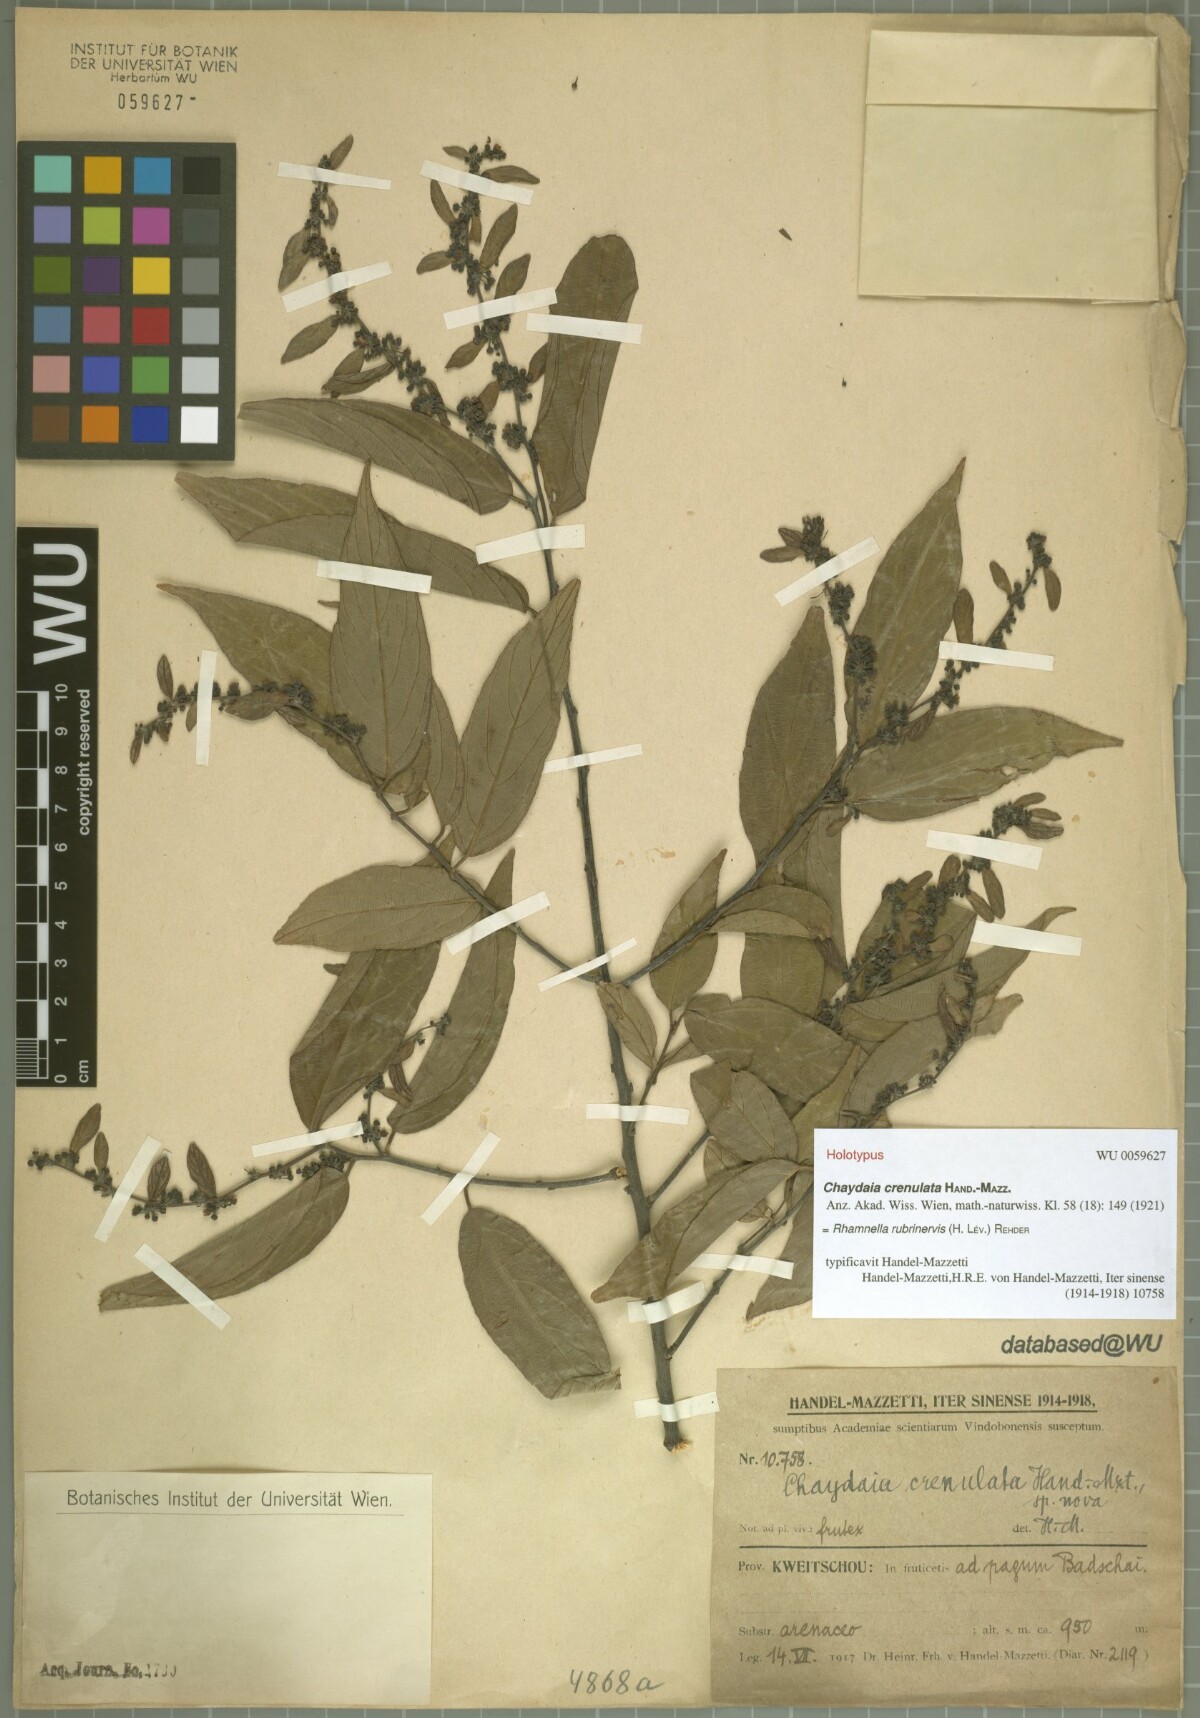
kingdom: Plantae
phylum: Tracheophyta
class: Magnoliopsida
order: Rosales
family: Rhamnaceae
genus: Rhamnella
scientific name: Rhamnella rubrinervis
